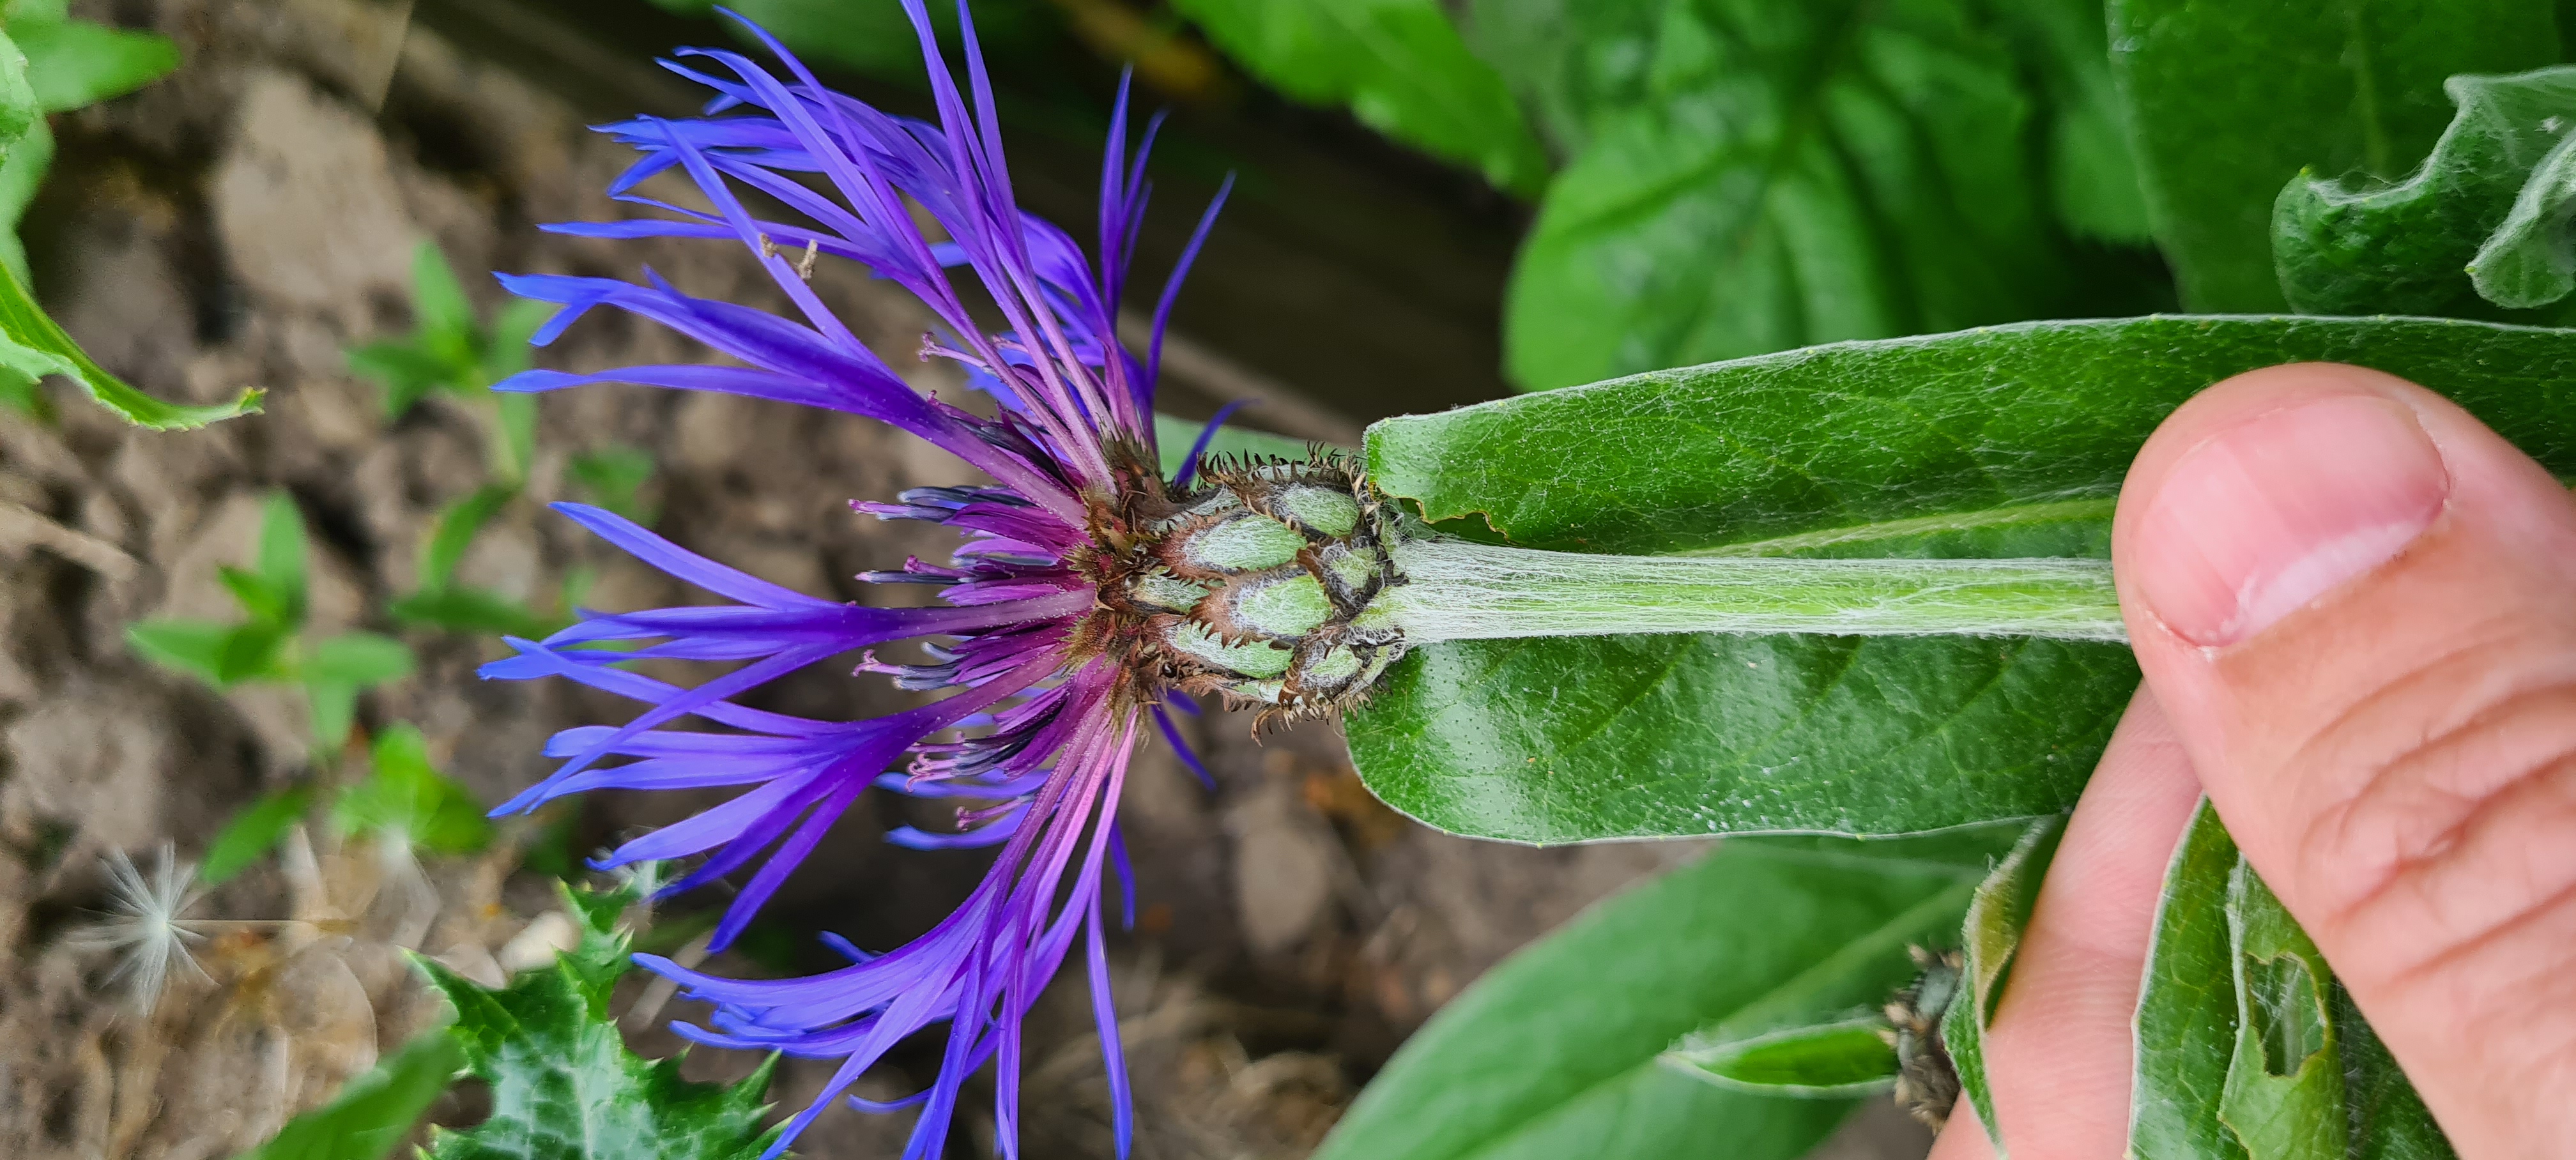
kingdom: Plantae
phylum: Tracheophyta
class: Magnoliopsida
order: Asterales
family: Asteraceae
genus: Centaurea
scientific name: Centaurea montana
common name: Bjerg-knopurt
